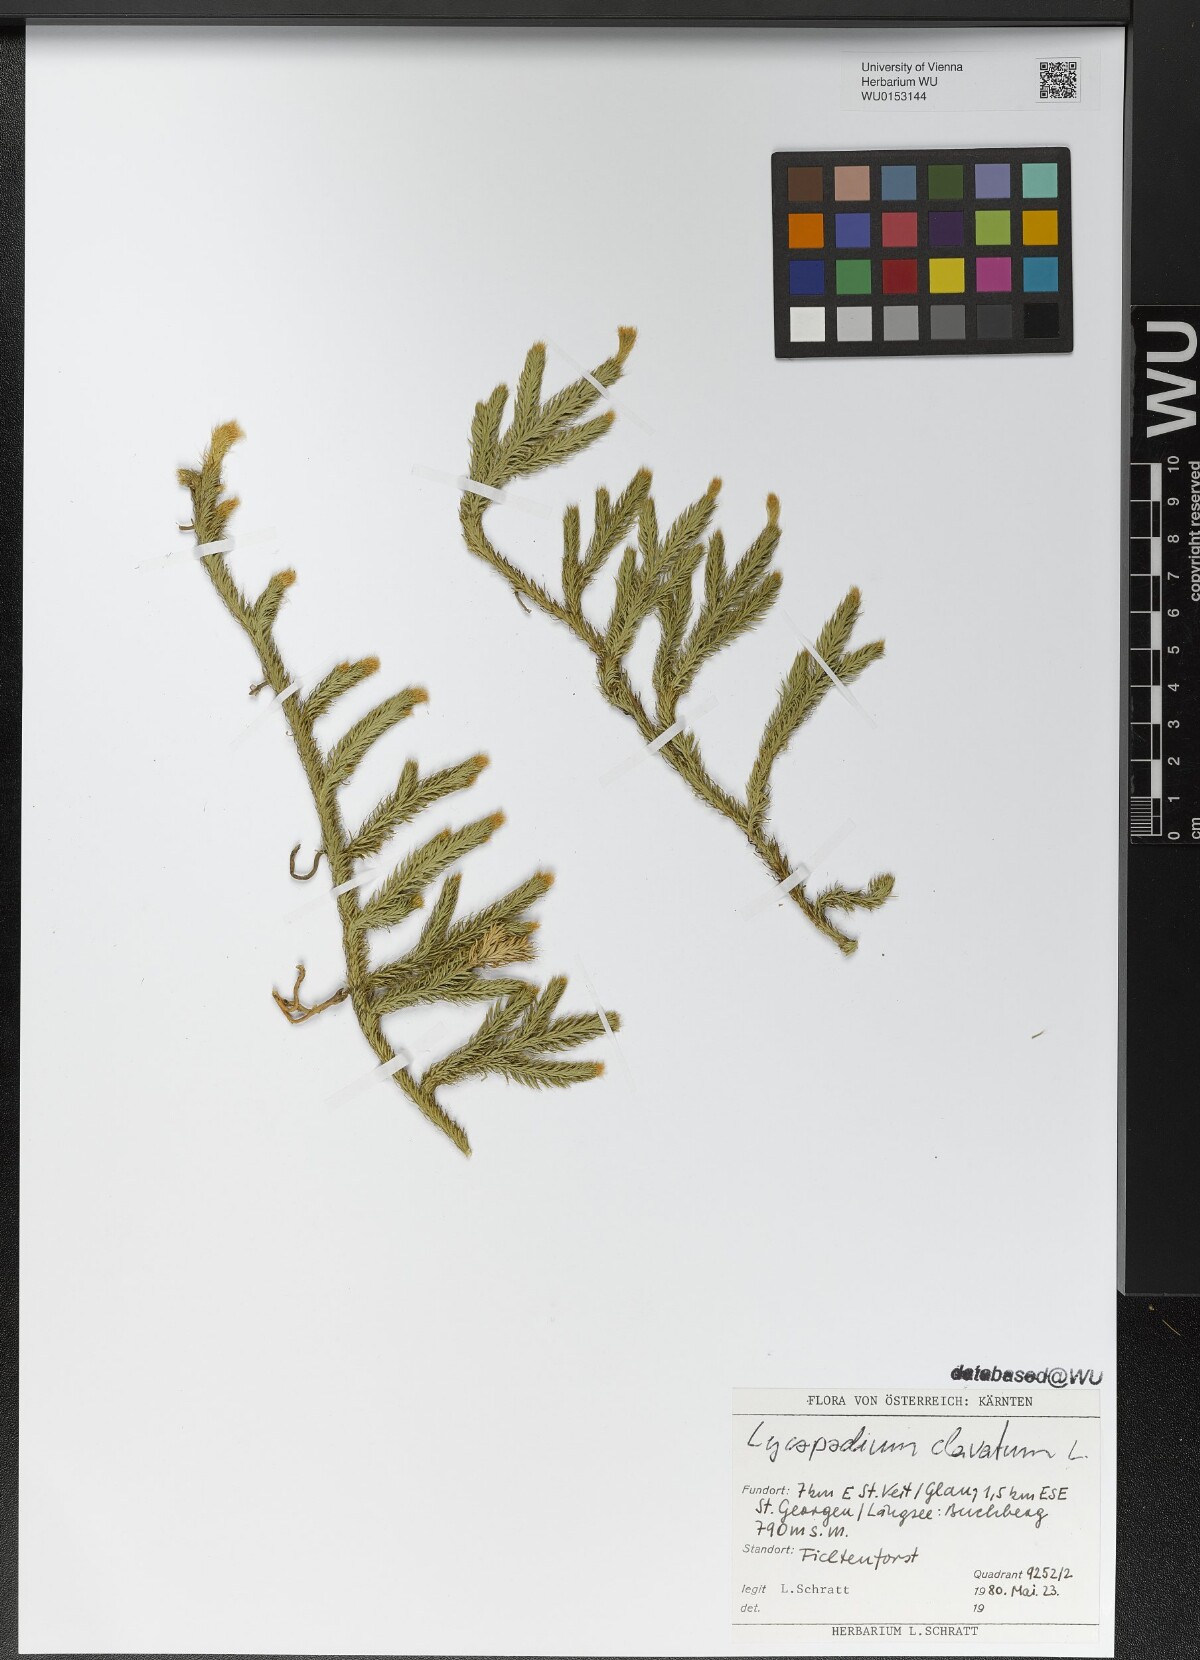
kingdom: Plantae
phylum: Tracheophyta
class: Lycopodiopsida
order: Lycopodiales
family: Lycopodiaceae
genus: Lycopodium
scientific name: Lycopodium clavatum
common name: Stag's-horn clubmoss
